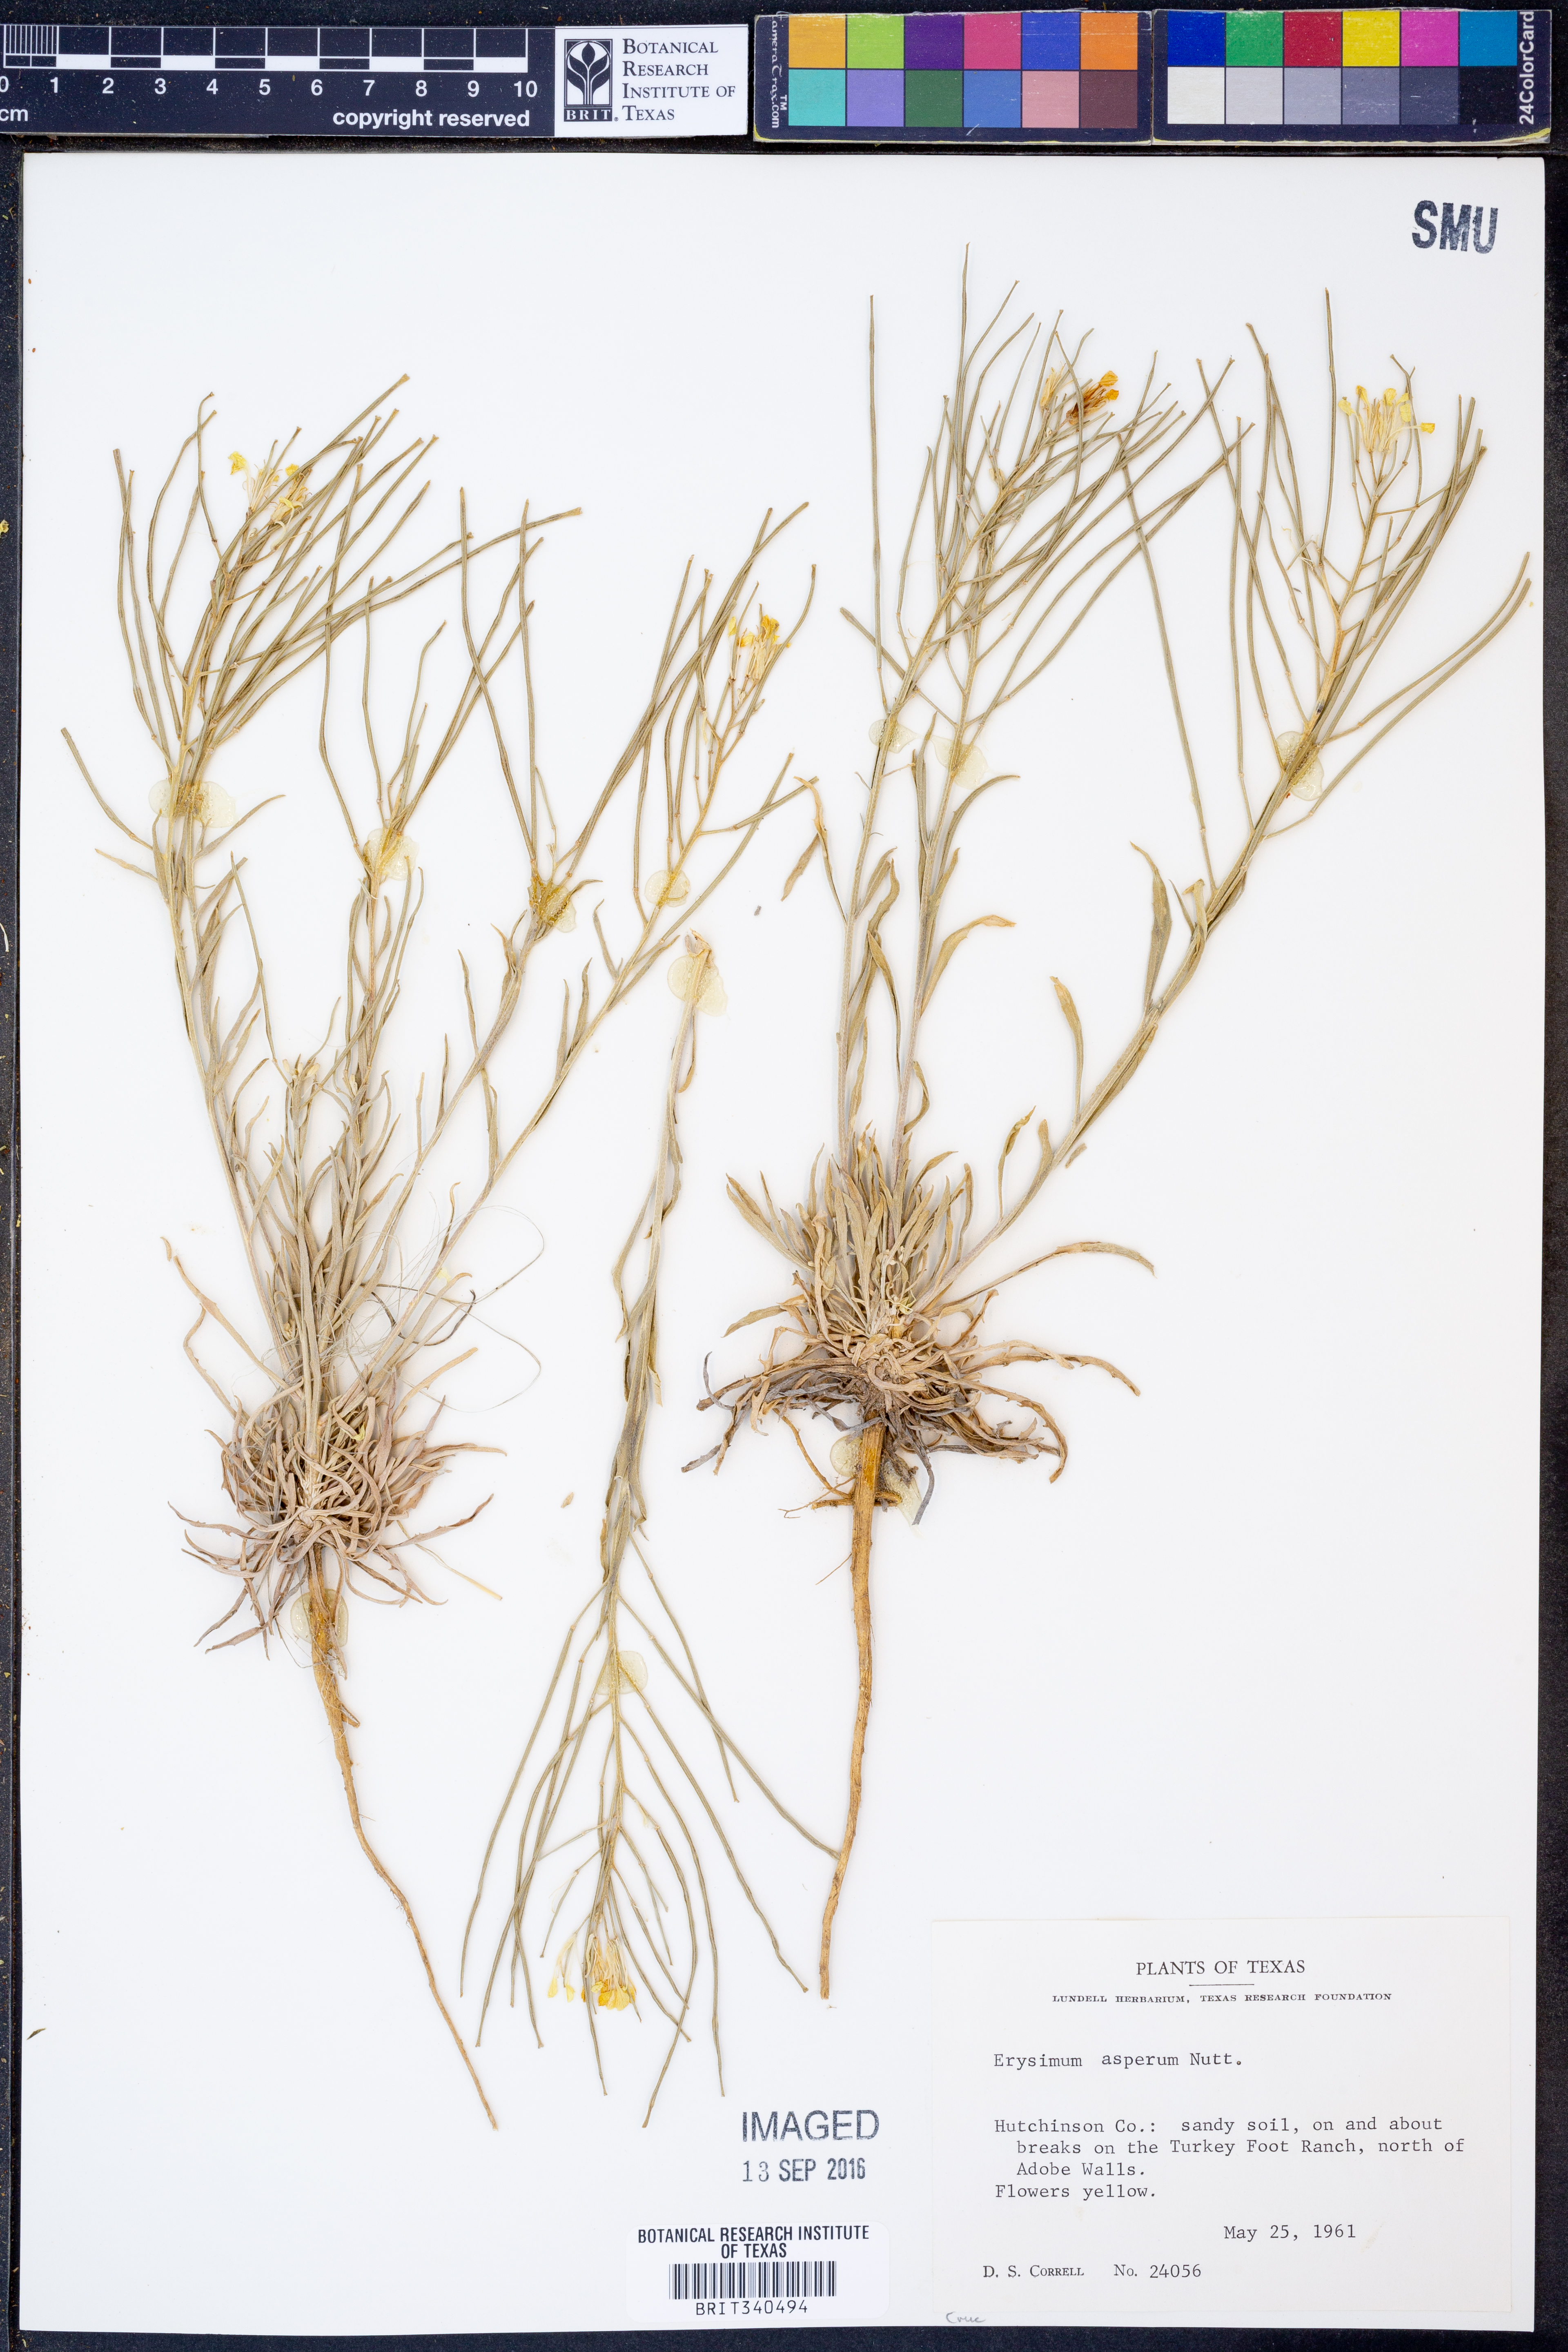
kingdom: Plantae
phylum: Tracheophyta
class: Magnoliopsida
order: Brassicales
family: Brassicaceae
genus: Erysimum
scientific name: Erysimum asperum
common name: Western wallflower
